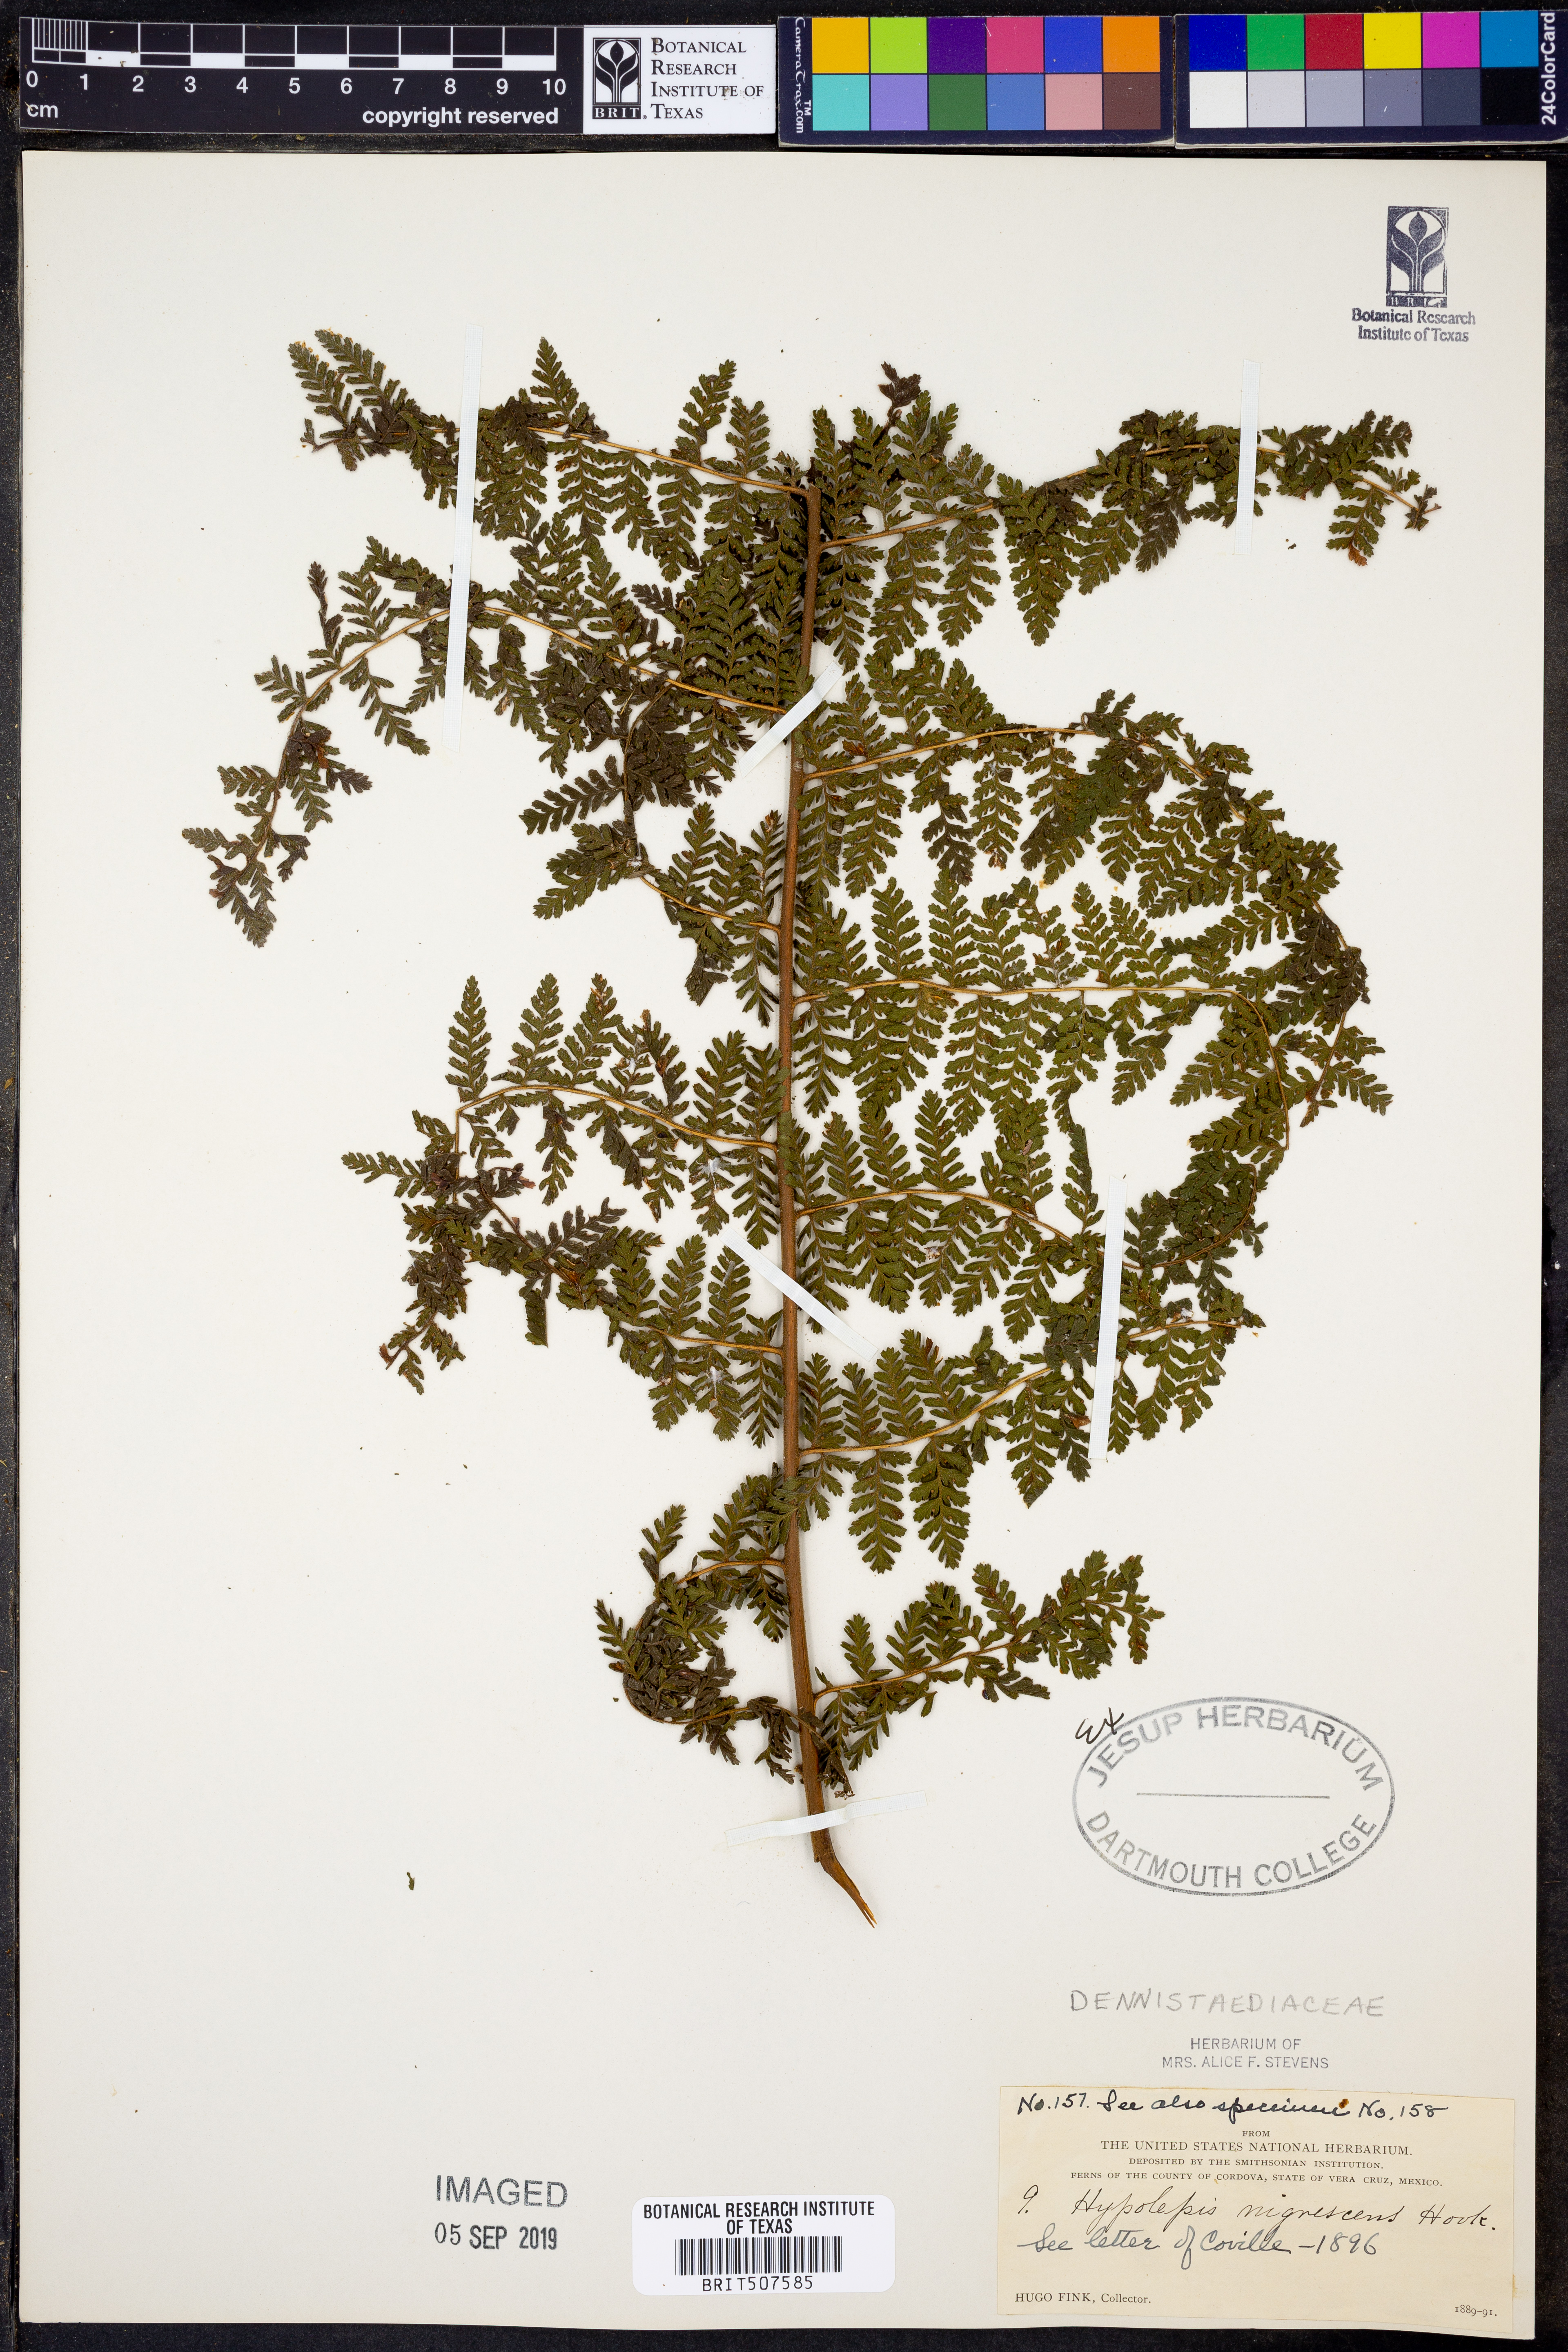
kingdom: Plantae
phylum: Tracheophyta
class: Polypodiopsida
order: Polypodiales
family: Dennstaedtiaceae
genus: Hiya
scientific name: Hiya nigrescens
